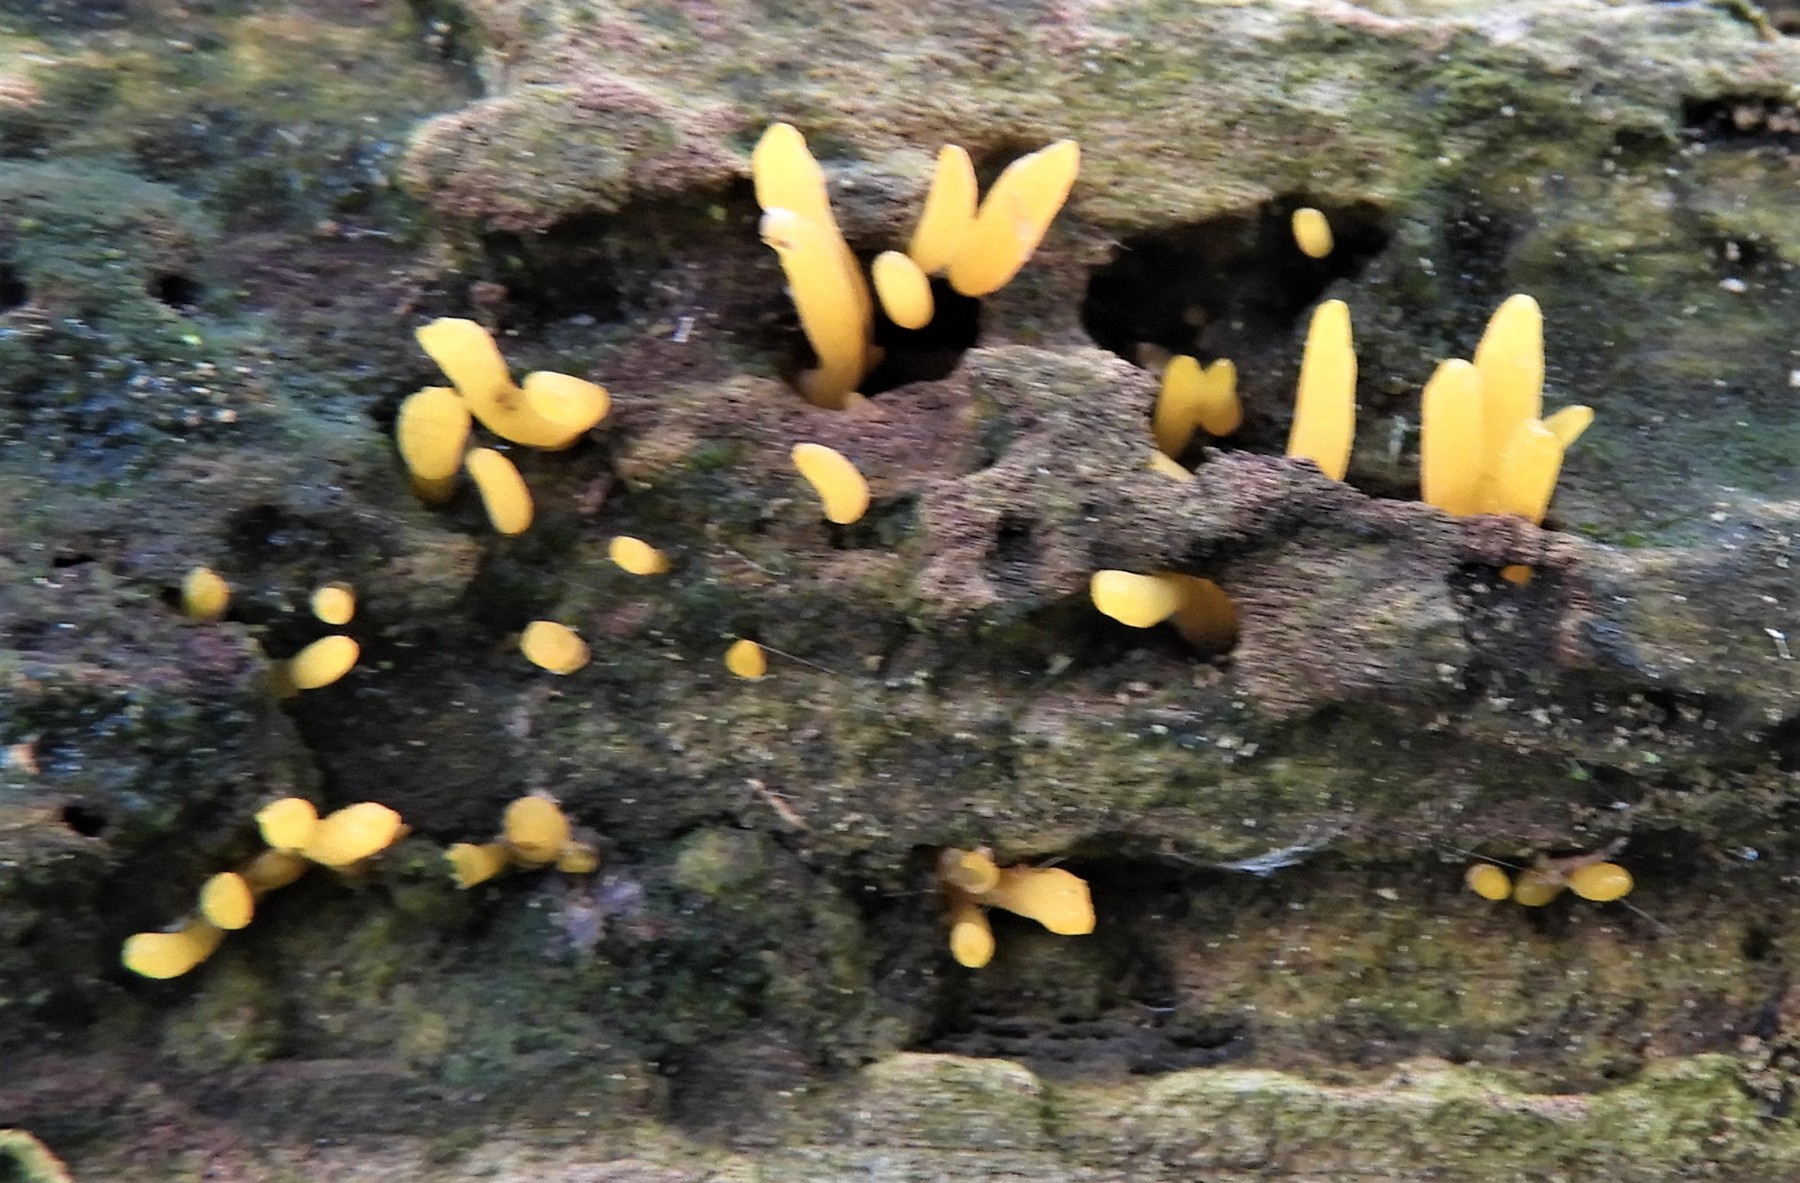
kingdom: Fungi
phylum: Basidiomycota
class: Dacrymycetes
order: Dacrymycetales
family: Dacrymycetaceae
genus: Calocera
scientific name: Calocera cornea
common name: liden guldgaffel
